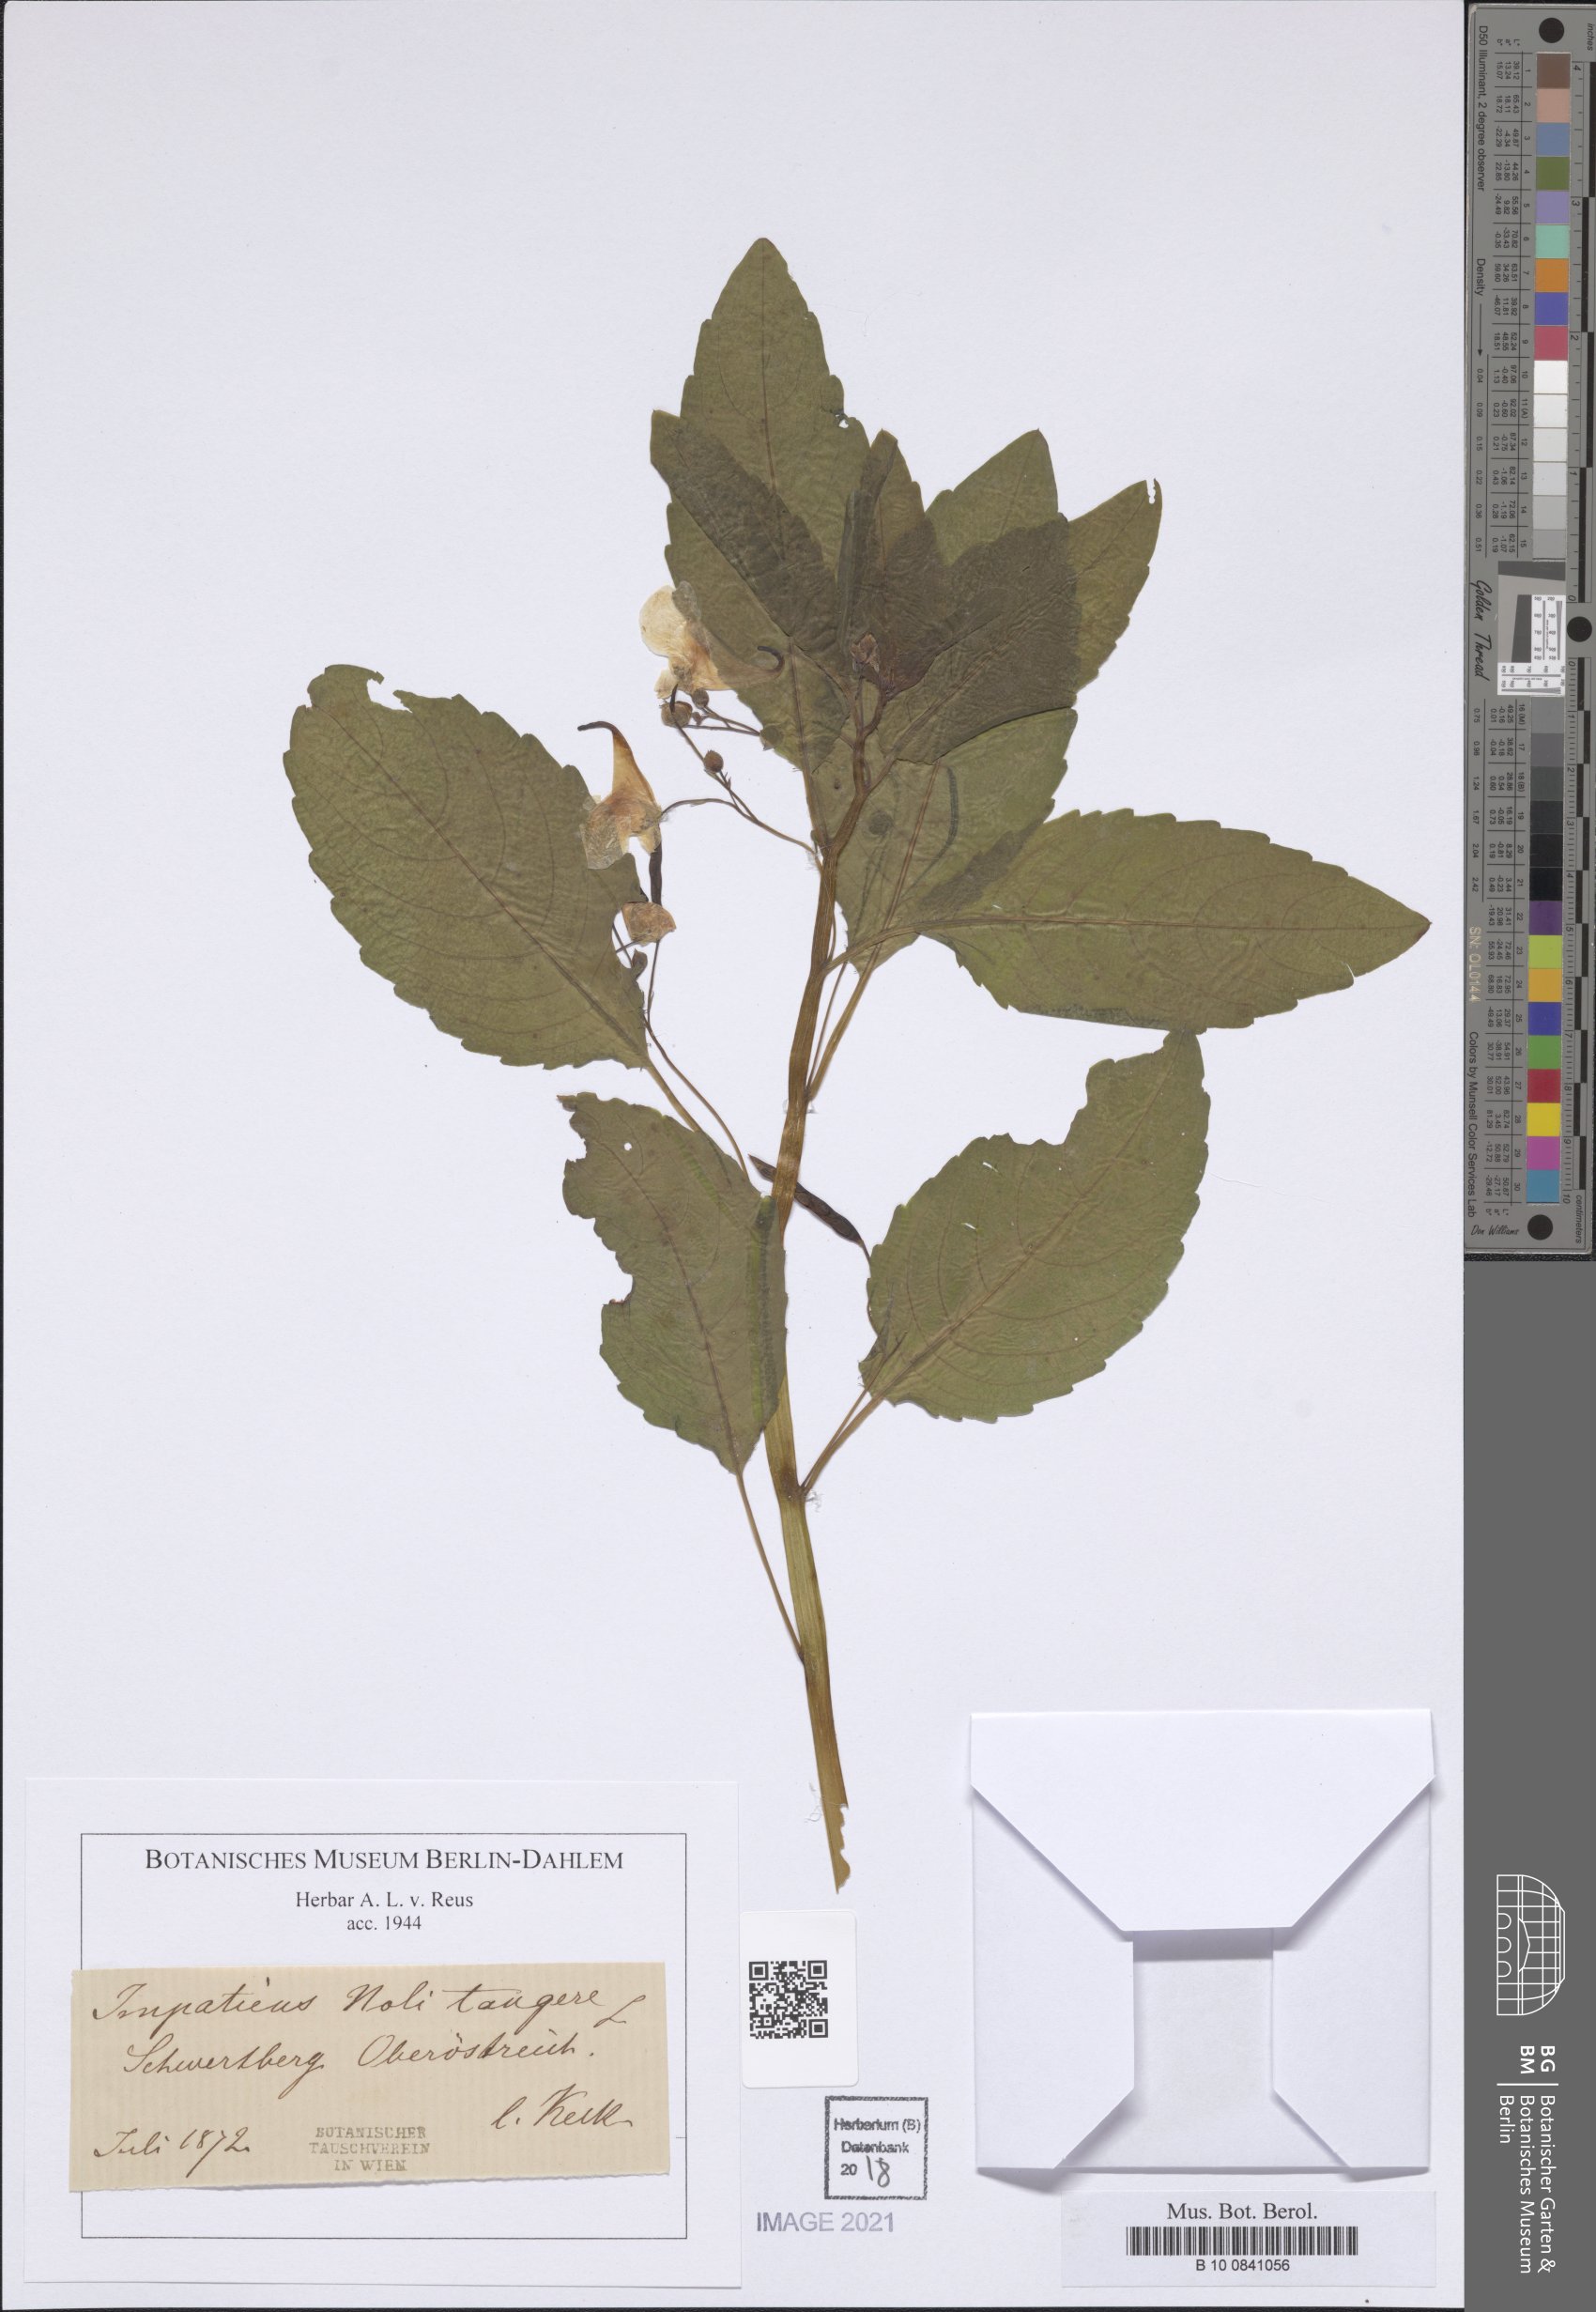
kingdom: Plantae
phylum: Tracheophyta
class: Magnoliopsida
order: Ericales
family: Balsaminaceae
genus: Impatiens
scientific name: Impatiens noli-tangere
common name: Touch-me-not balsam
